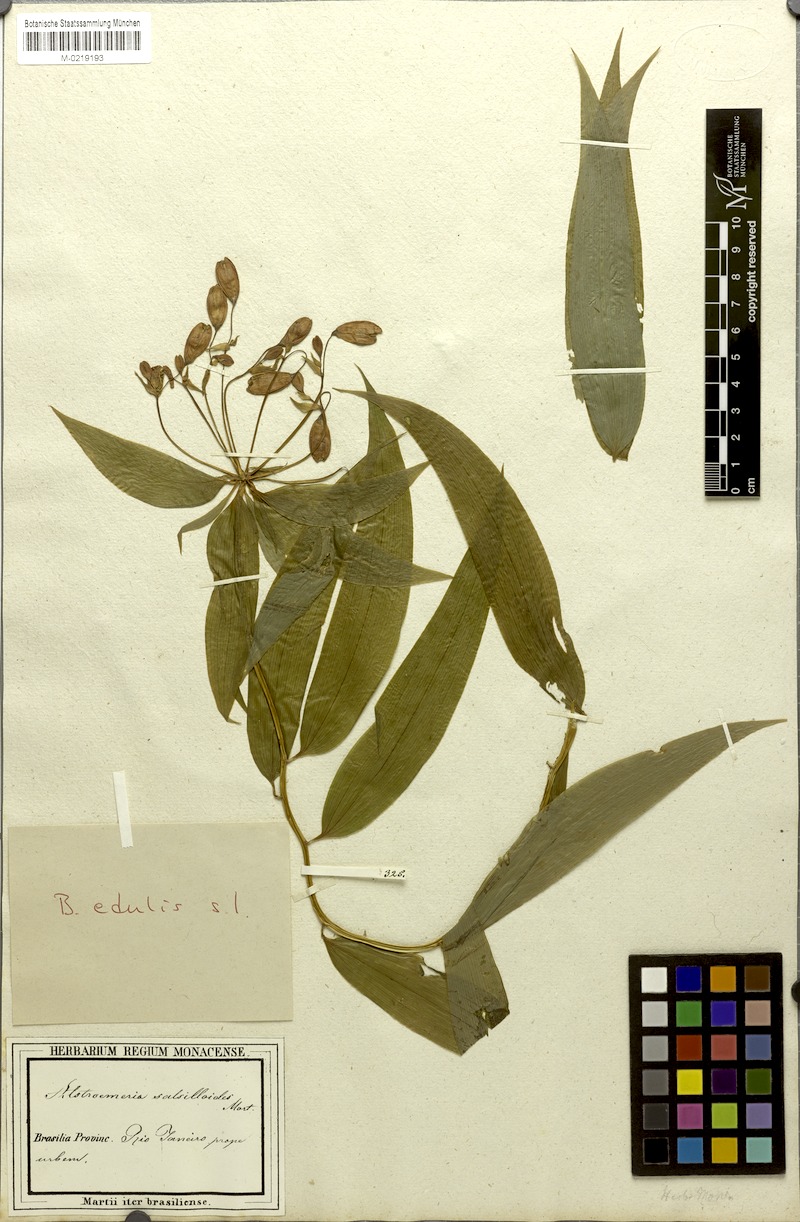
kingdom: Plantae
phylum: Tracheophyta
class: Liliopsida
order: Liliales
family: Alstroemeriaceae
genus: Bomarea
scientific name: Bomarea edulis
